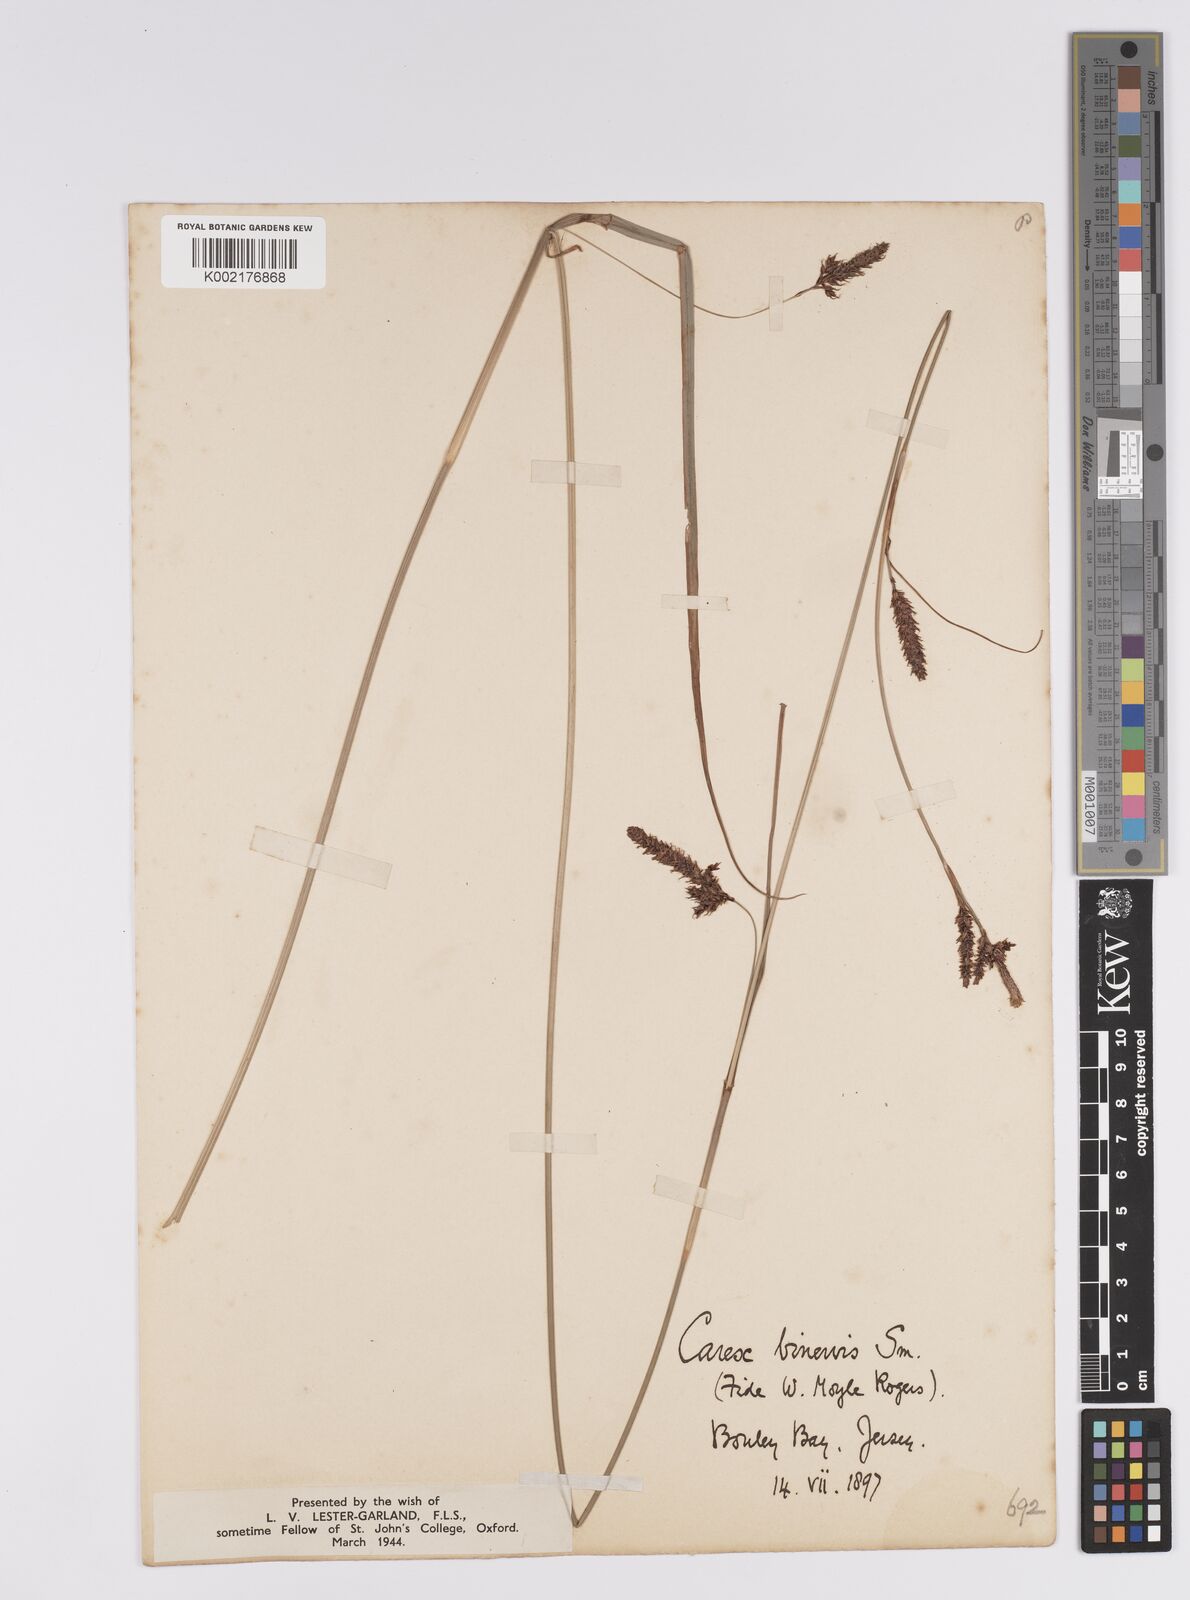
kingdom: Plantae
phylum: Tracheophyta
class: Liliopsida
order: Poales
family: Cyperaceae
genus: Carex
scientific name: Carex binervis
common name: Green-ribbed sedge
